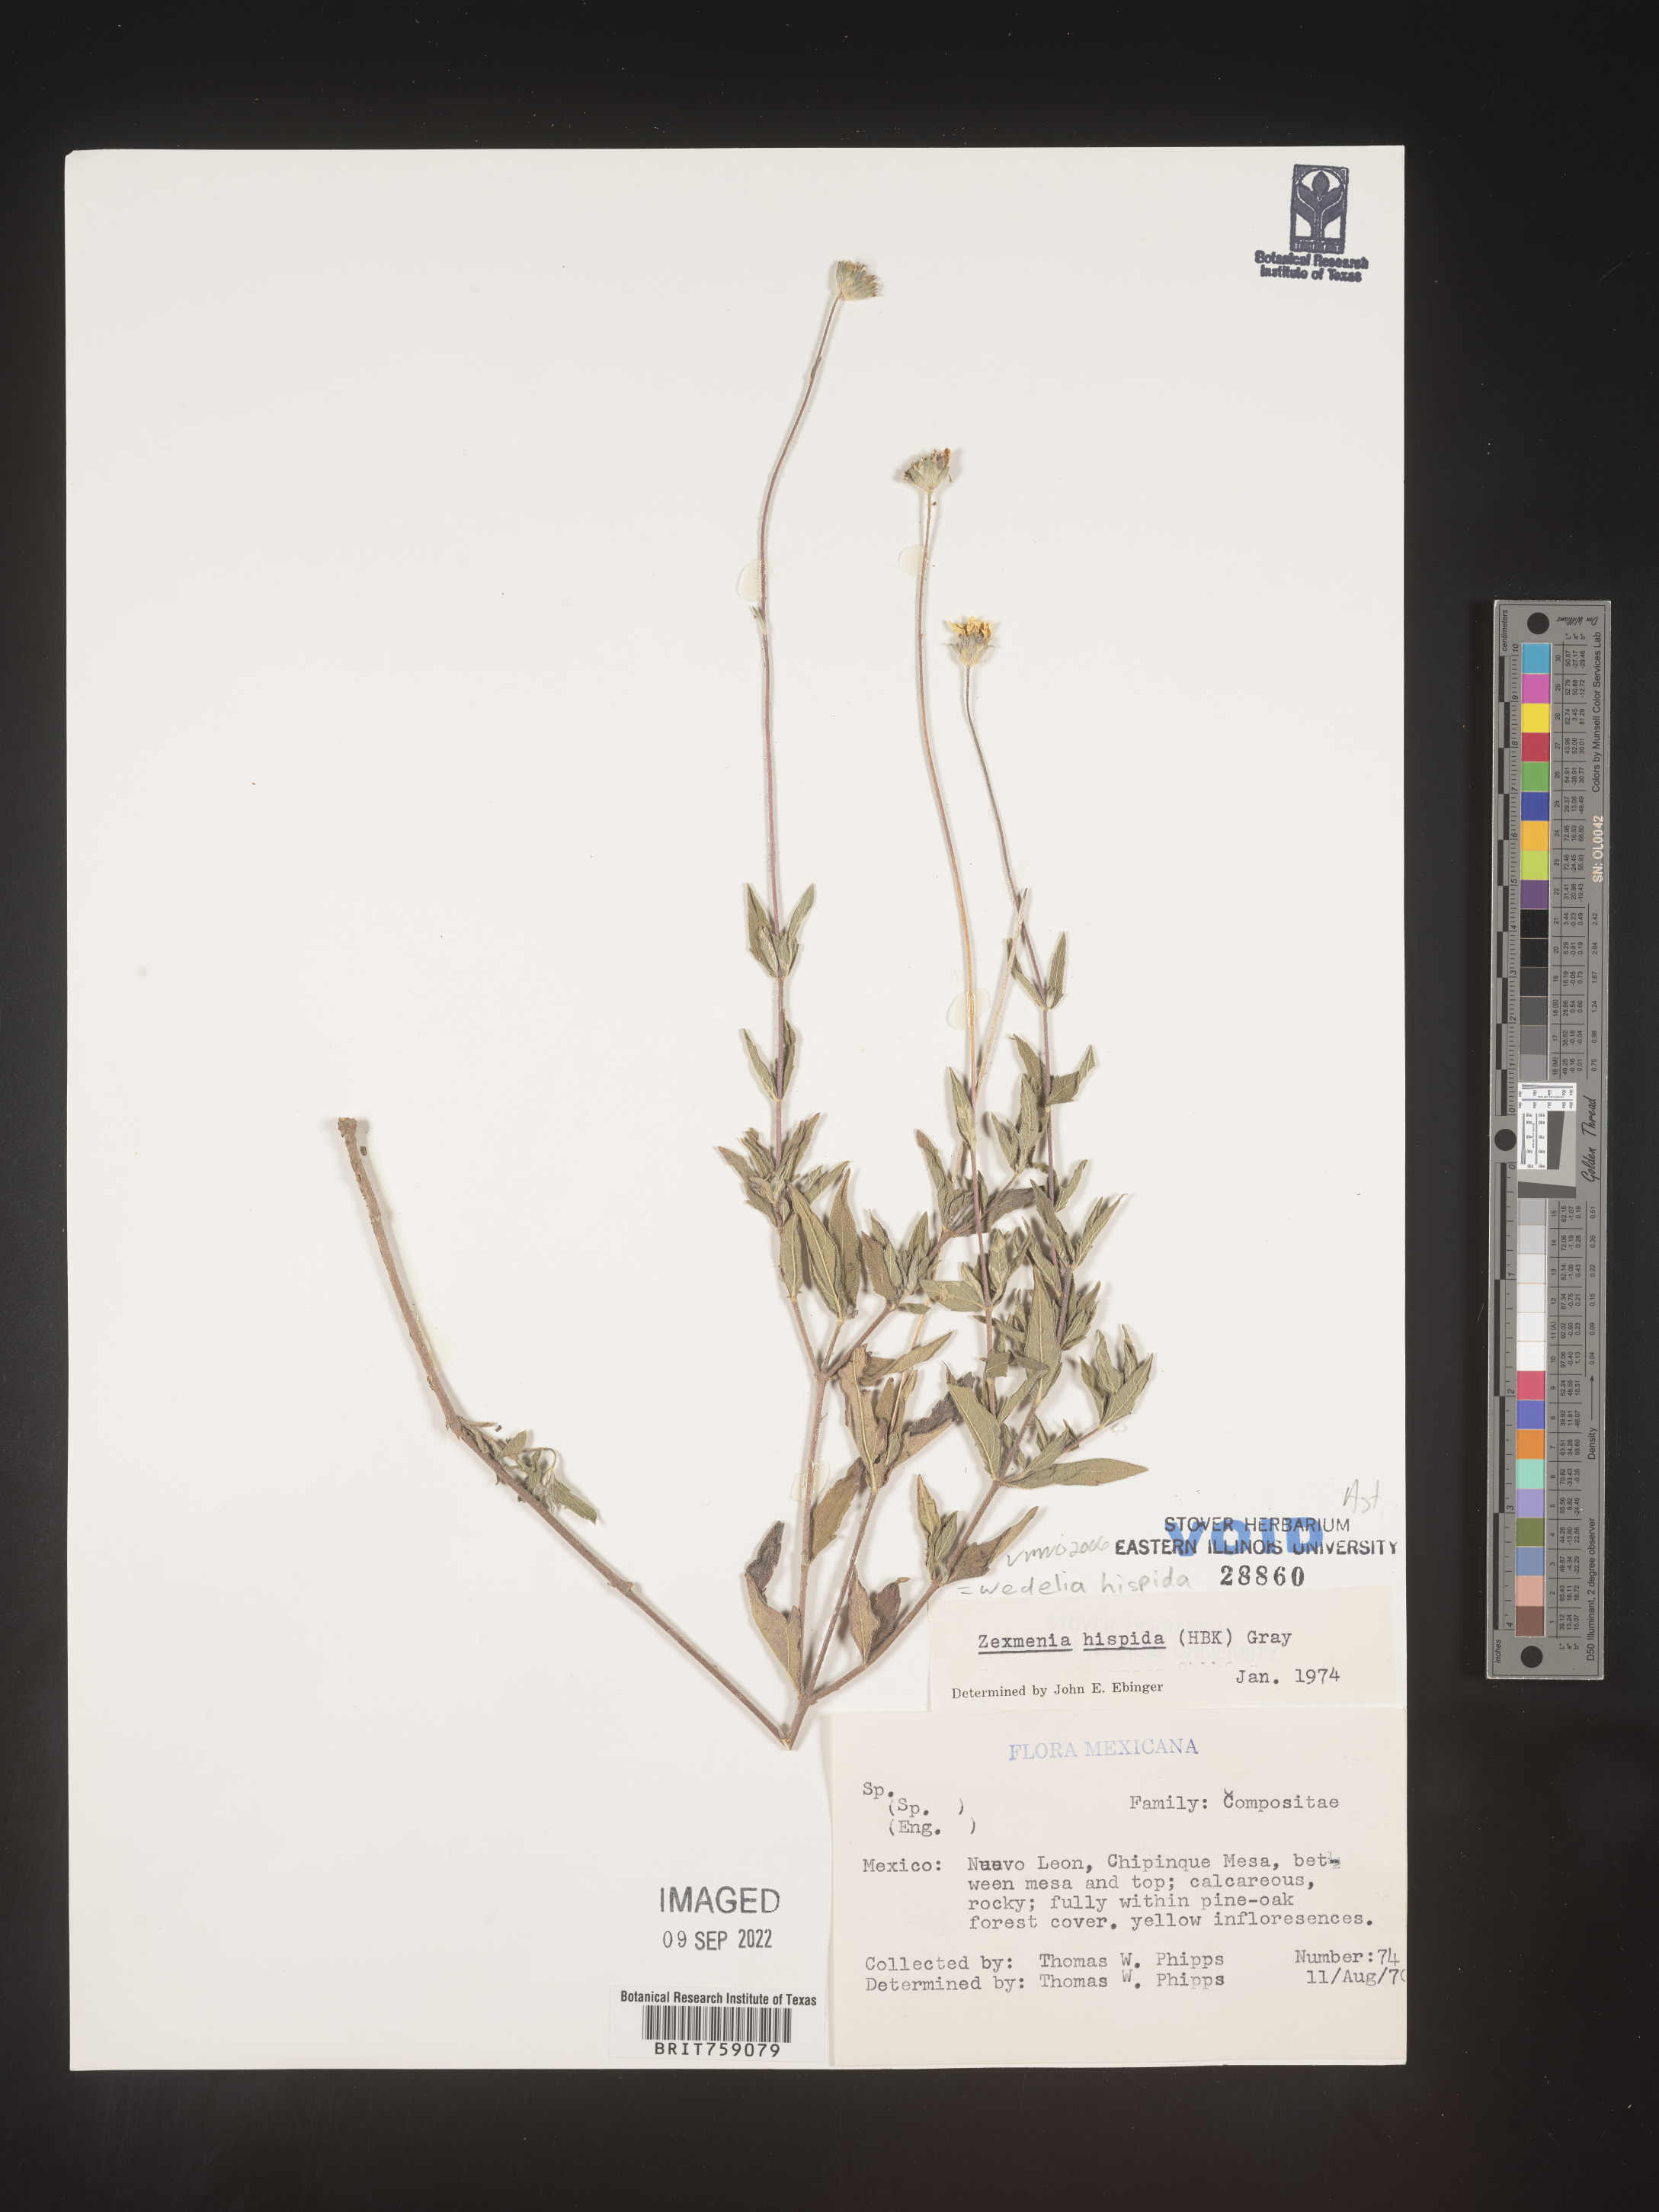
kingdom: Plantae
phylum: Tracheophyta
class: Magnoliopsida
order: Asterales
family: Asteraceae
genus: Wedelia
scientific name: Wedelia
